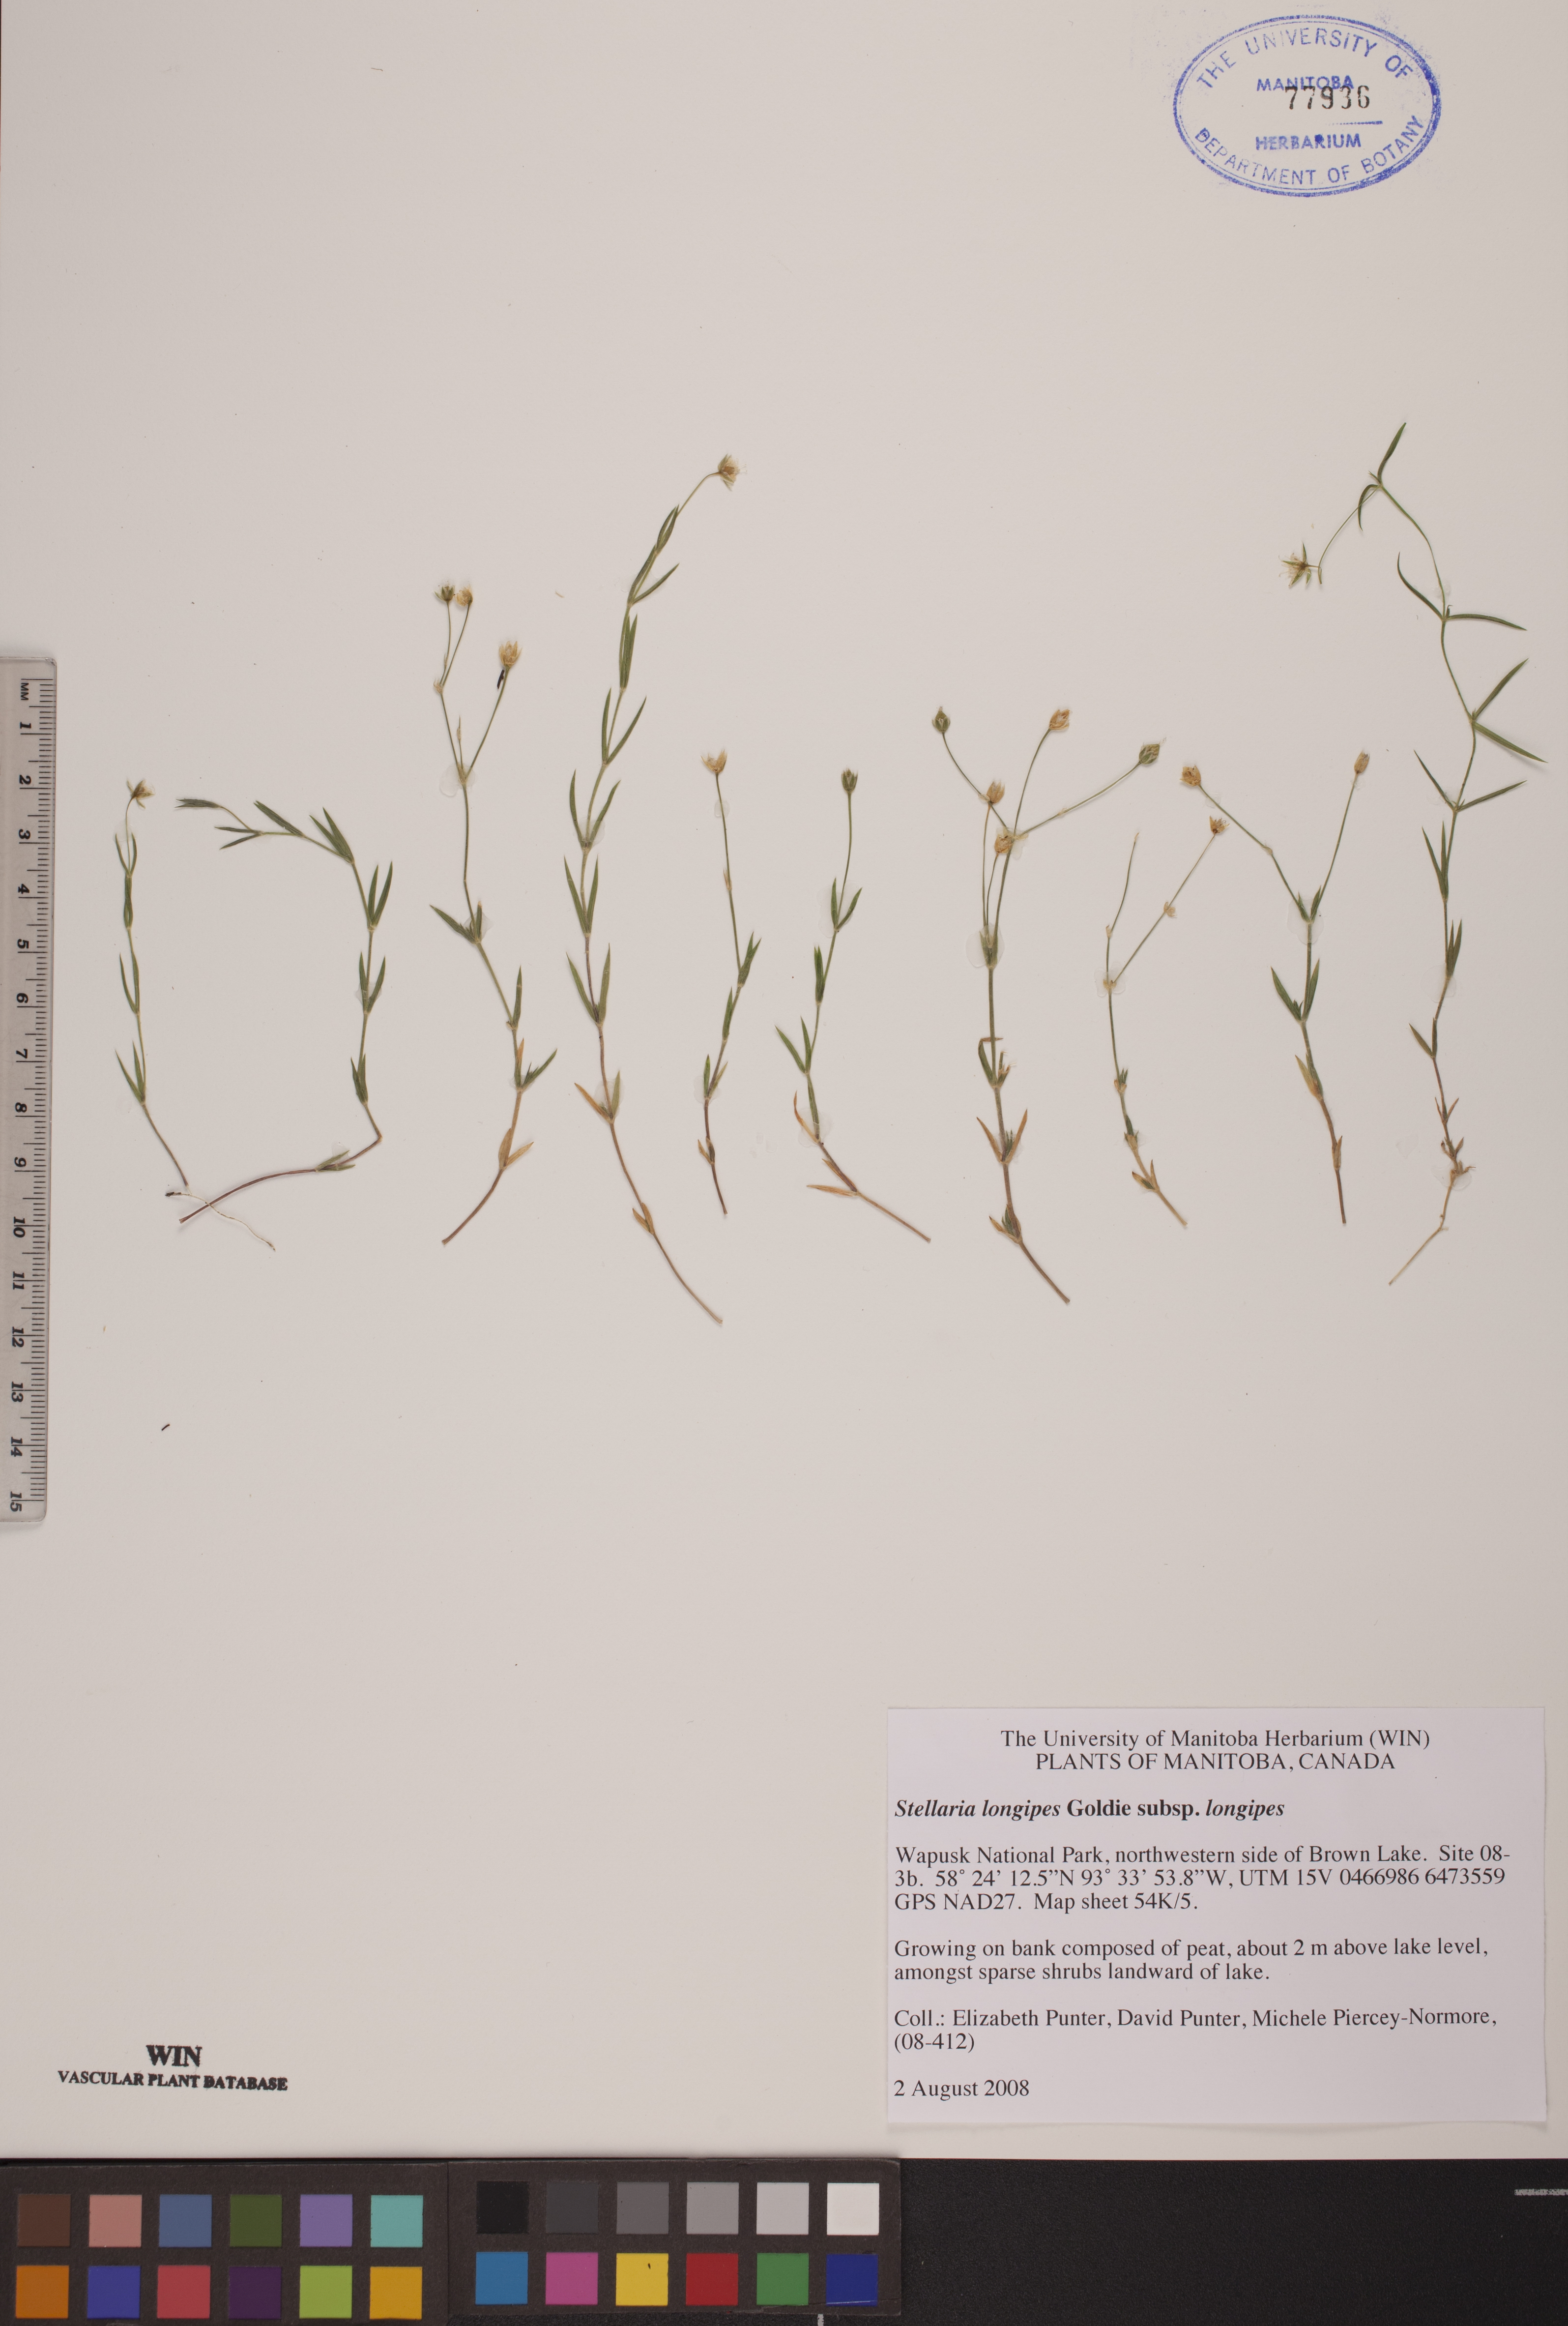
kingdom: Plantae
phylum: Tracheophyta
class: Magnoliopsida
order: Caryophyllales
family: Caryophyllaceae
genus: Stellaria
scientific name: Stellaria longipes
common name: Goldie's starwort
